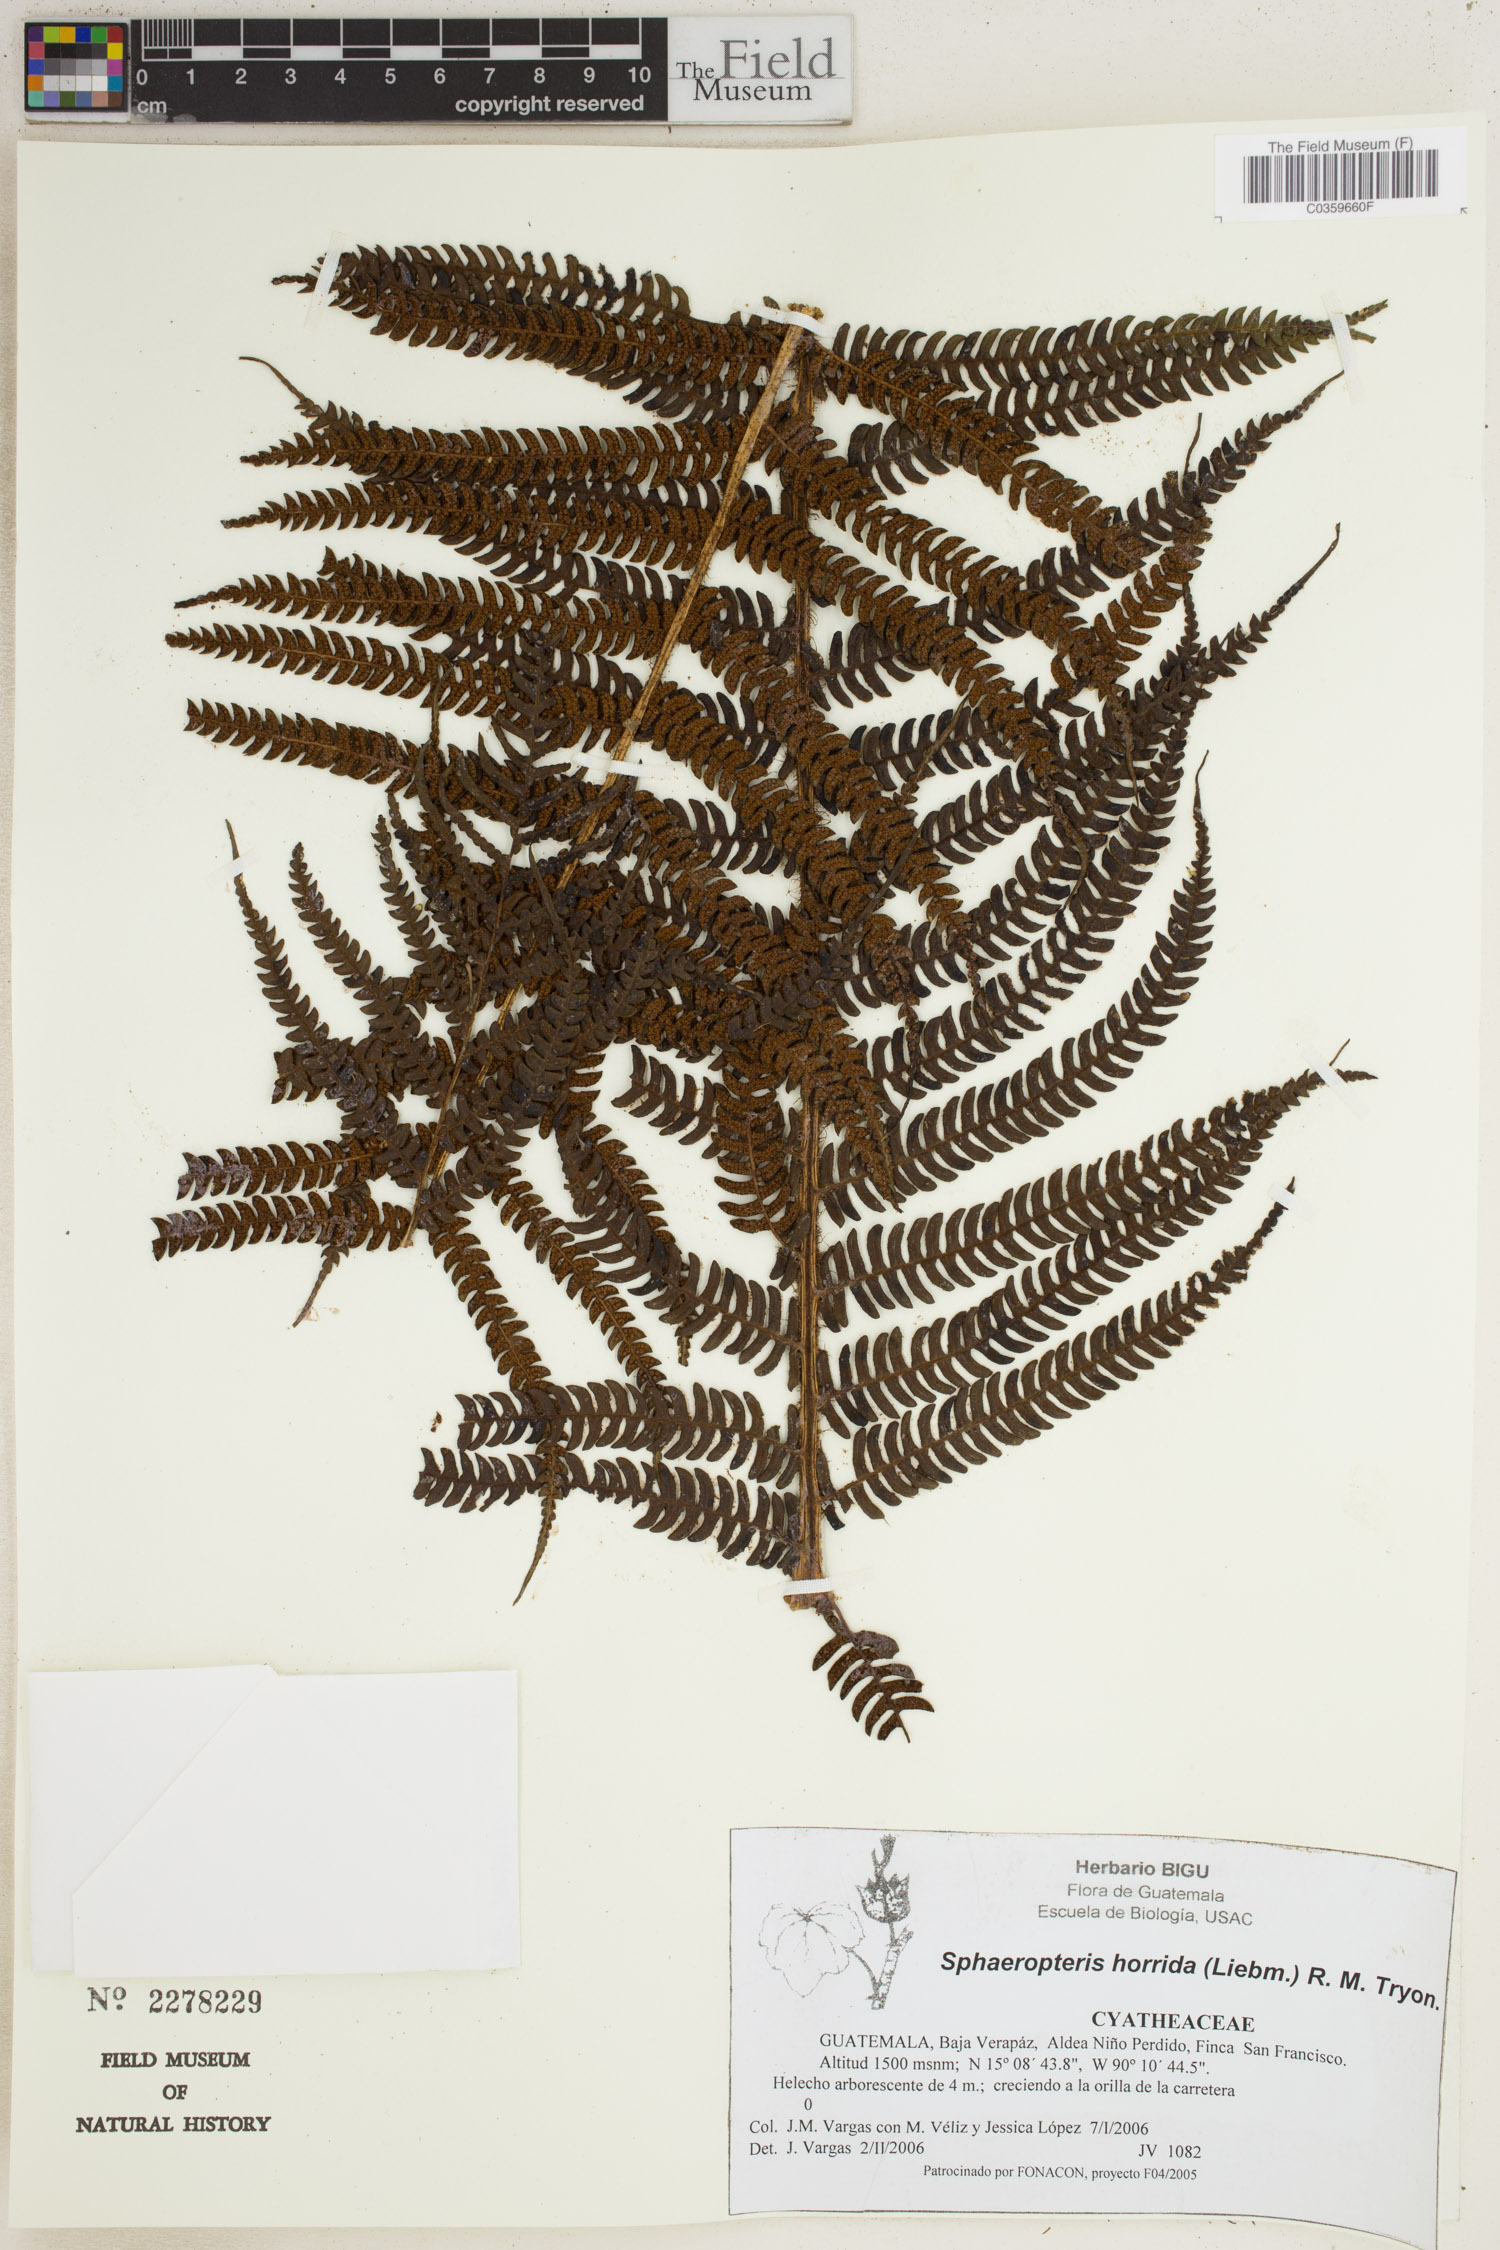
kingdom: Plantae
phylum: Tracheophyta
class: Polypodiopsida
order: Cyatheales
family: Cyatheaceae
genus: Sphaeropteris
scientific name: Sphaeropteris horrida
